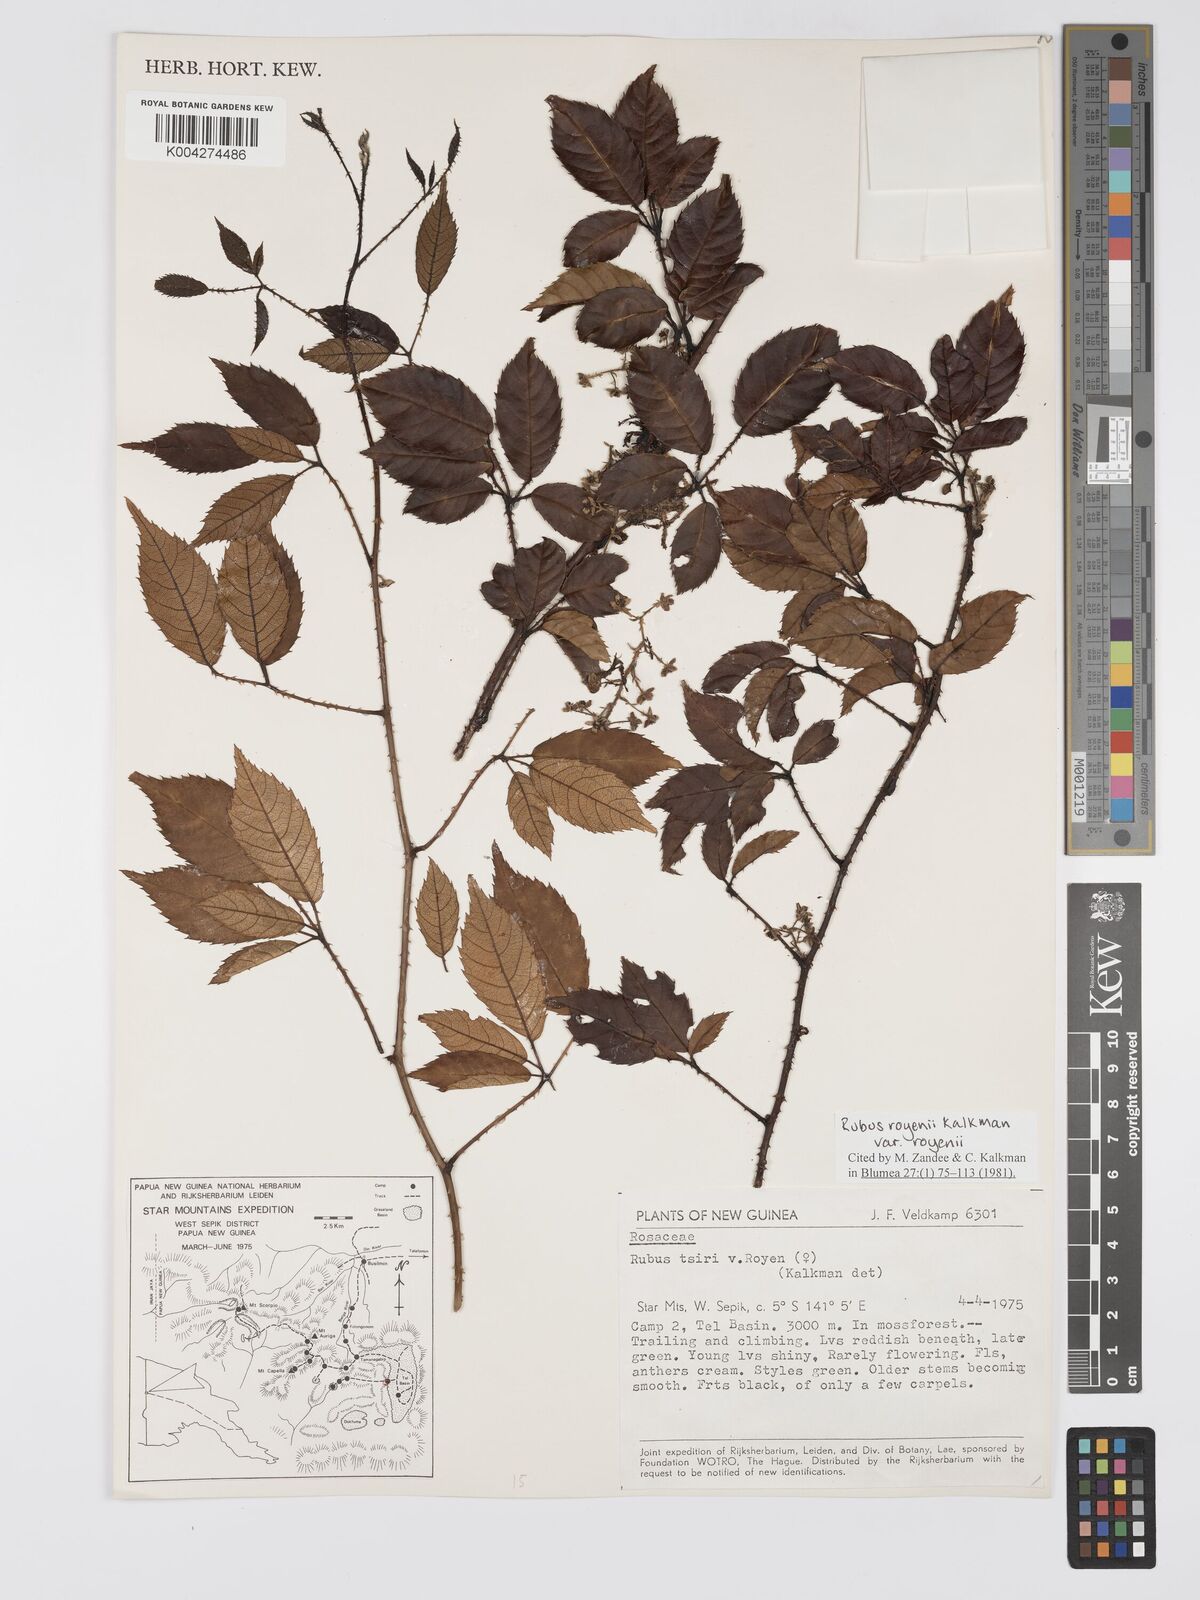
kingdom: Plantae
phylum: Tracheophyta
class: Magnoliopsida
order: Rosales
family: Rosaceae
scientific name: Rosaceae
